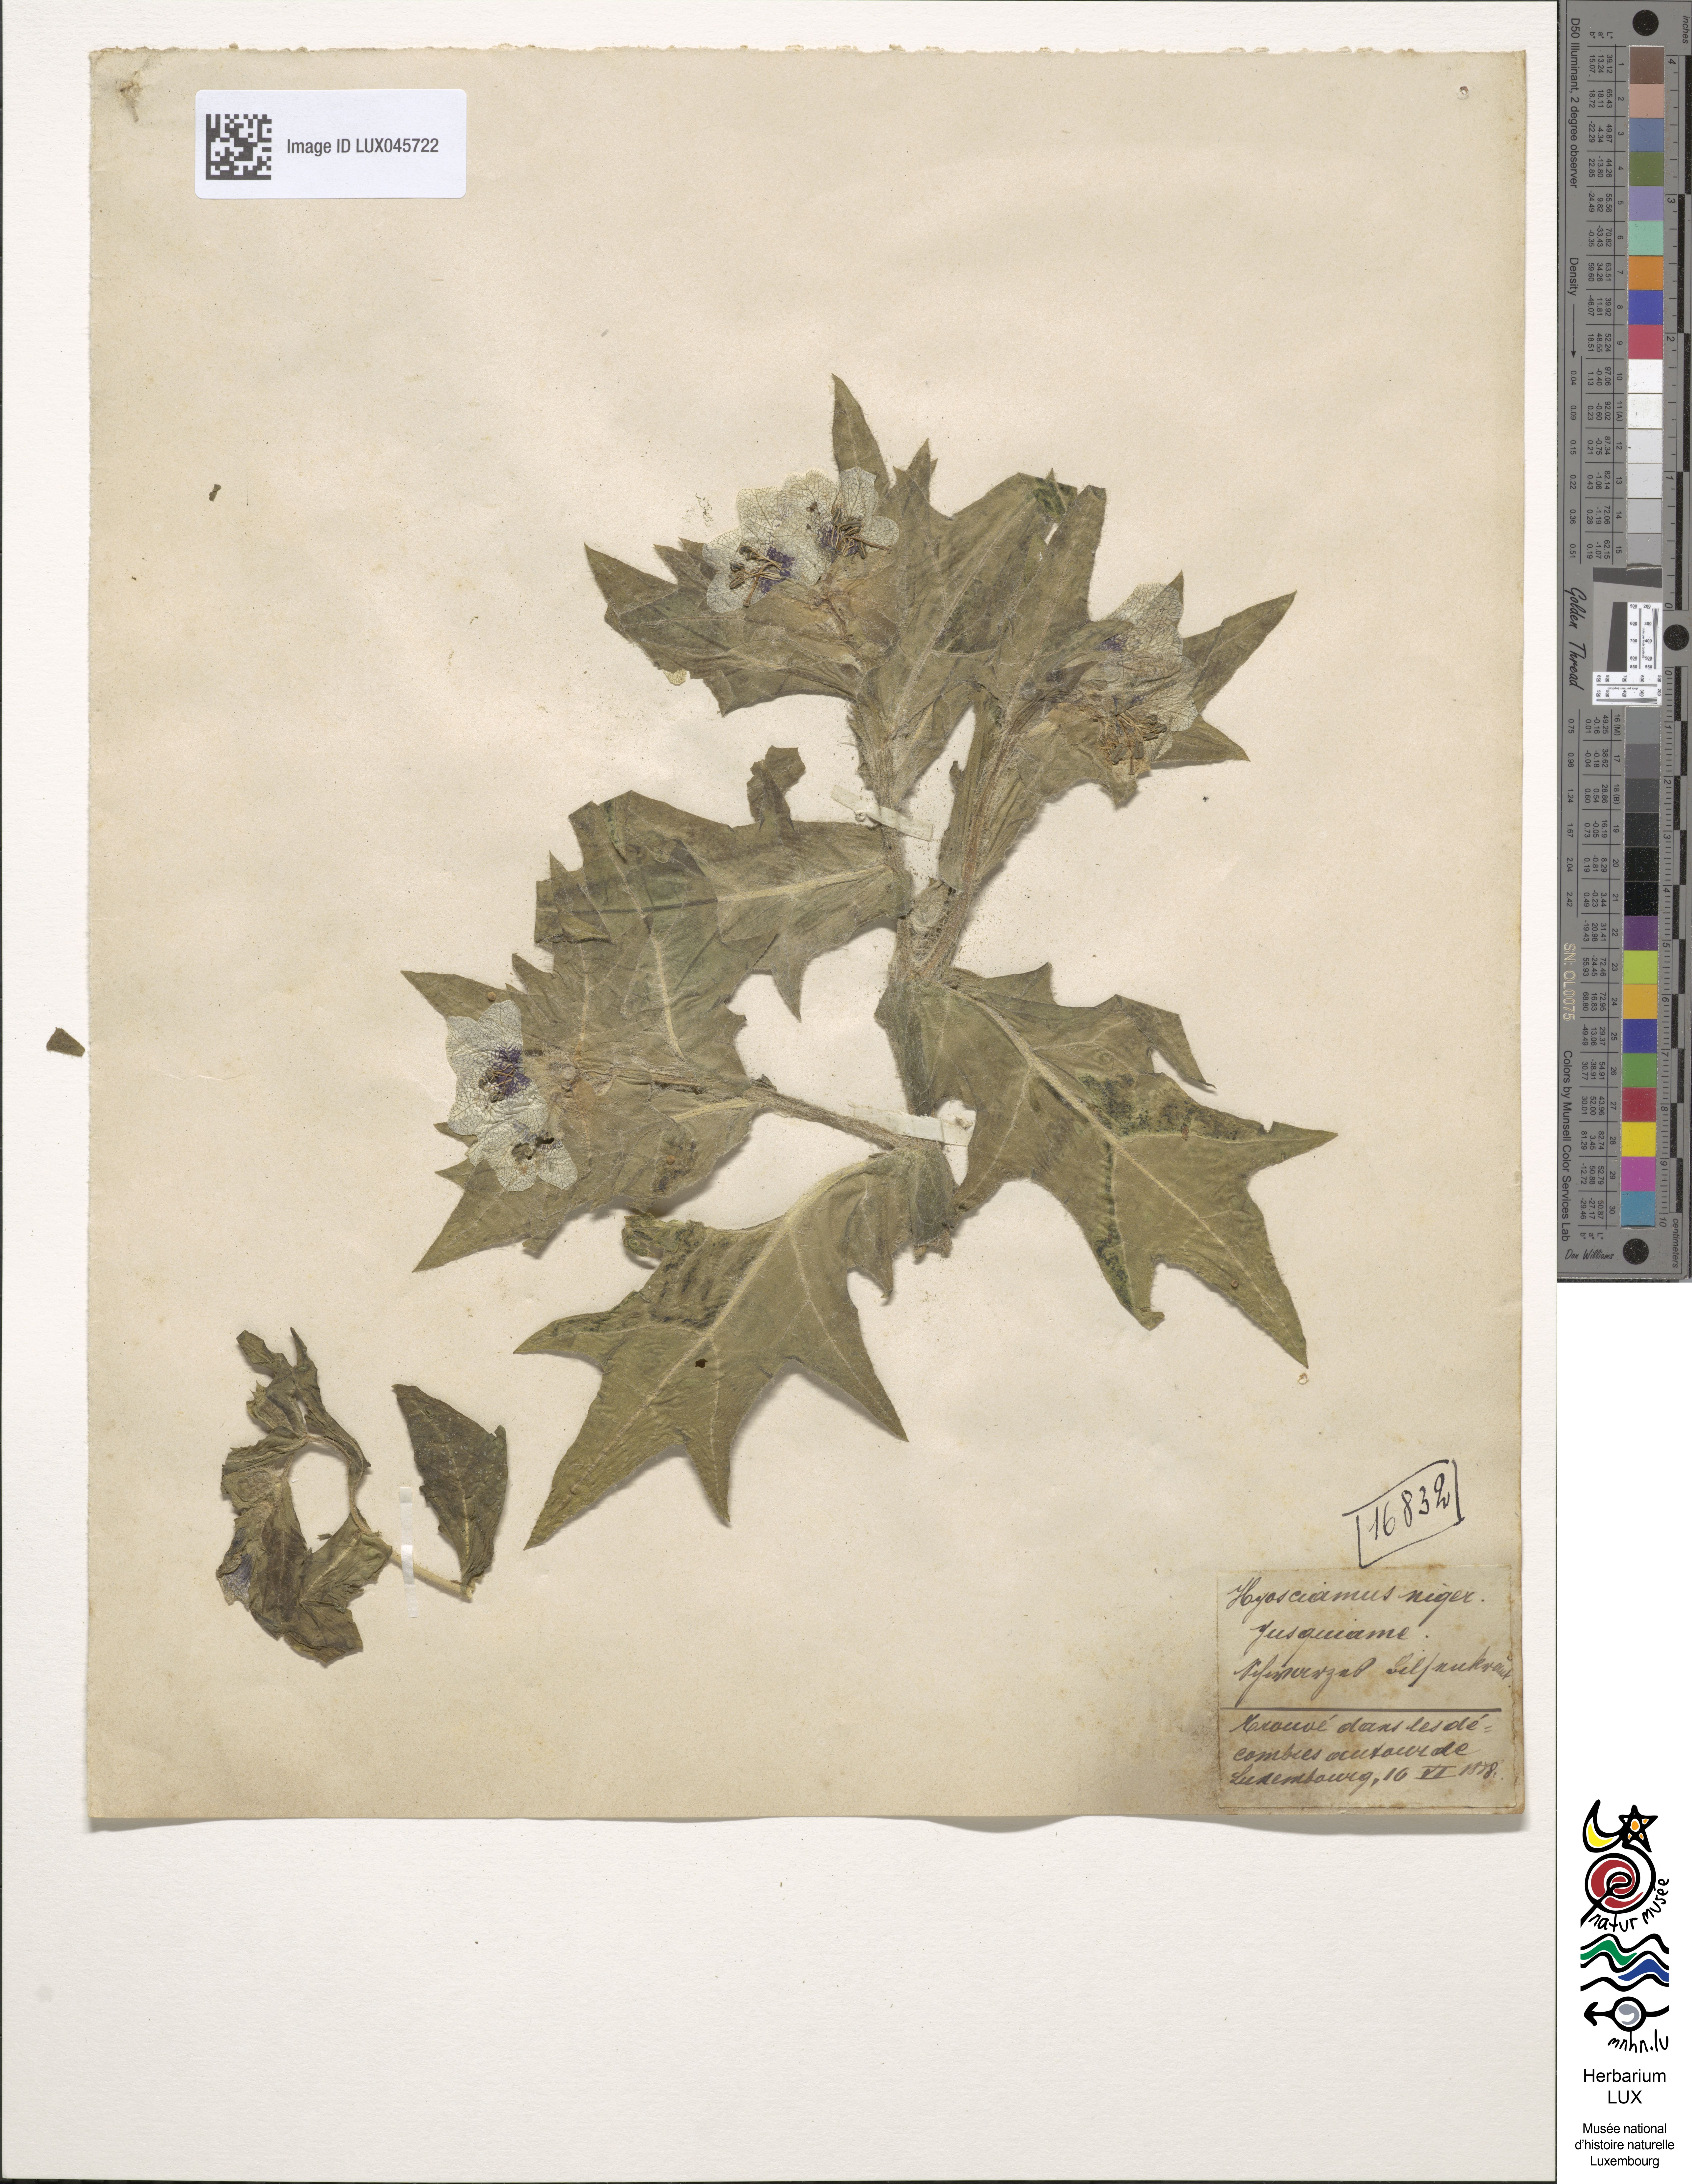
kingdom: Plantae
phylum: Tracheophyta
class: Magnoliopsida
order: Solanales
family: Solanaceae
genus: Hyoscyamus
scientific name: Hyoscyamus niger
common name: Henbane
